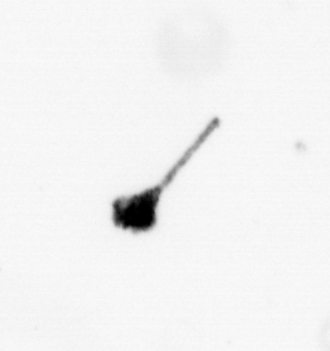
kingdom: Animalia
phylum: Arthropoda
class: Copepoda
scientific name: Copepoda
